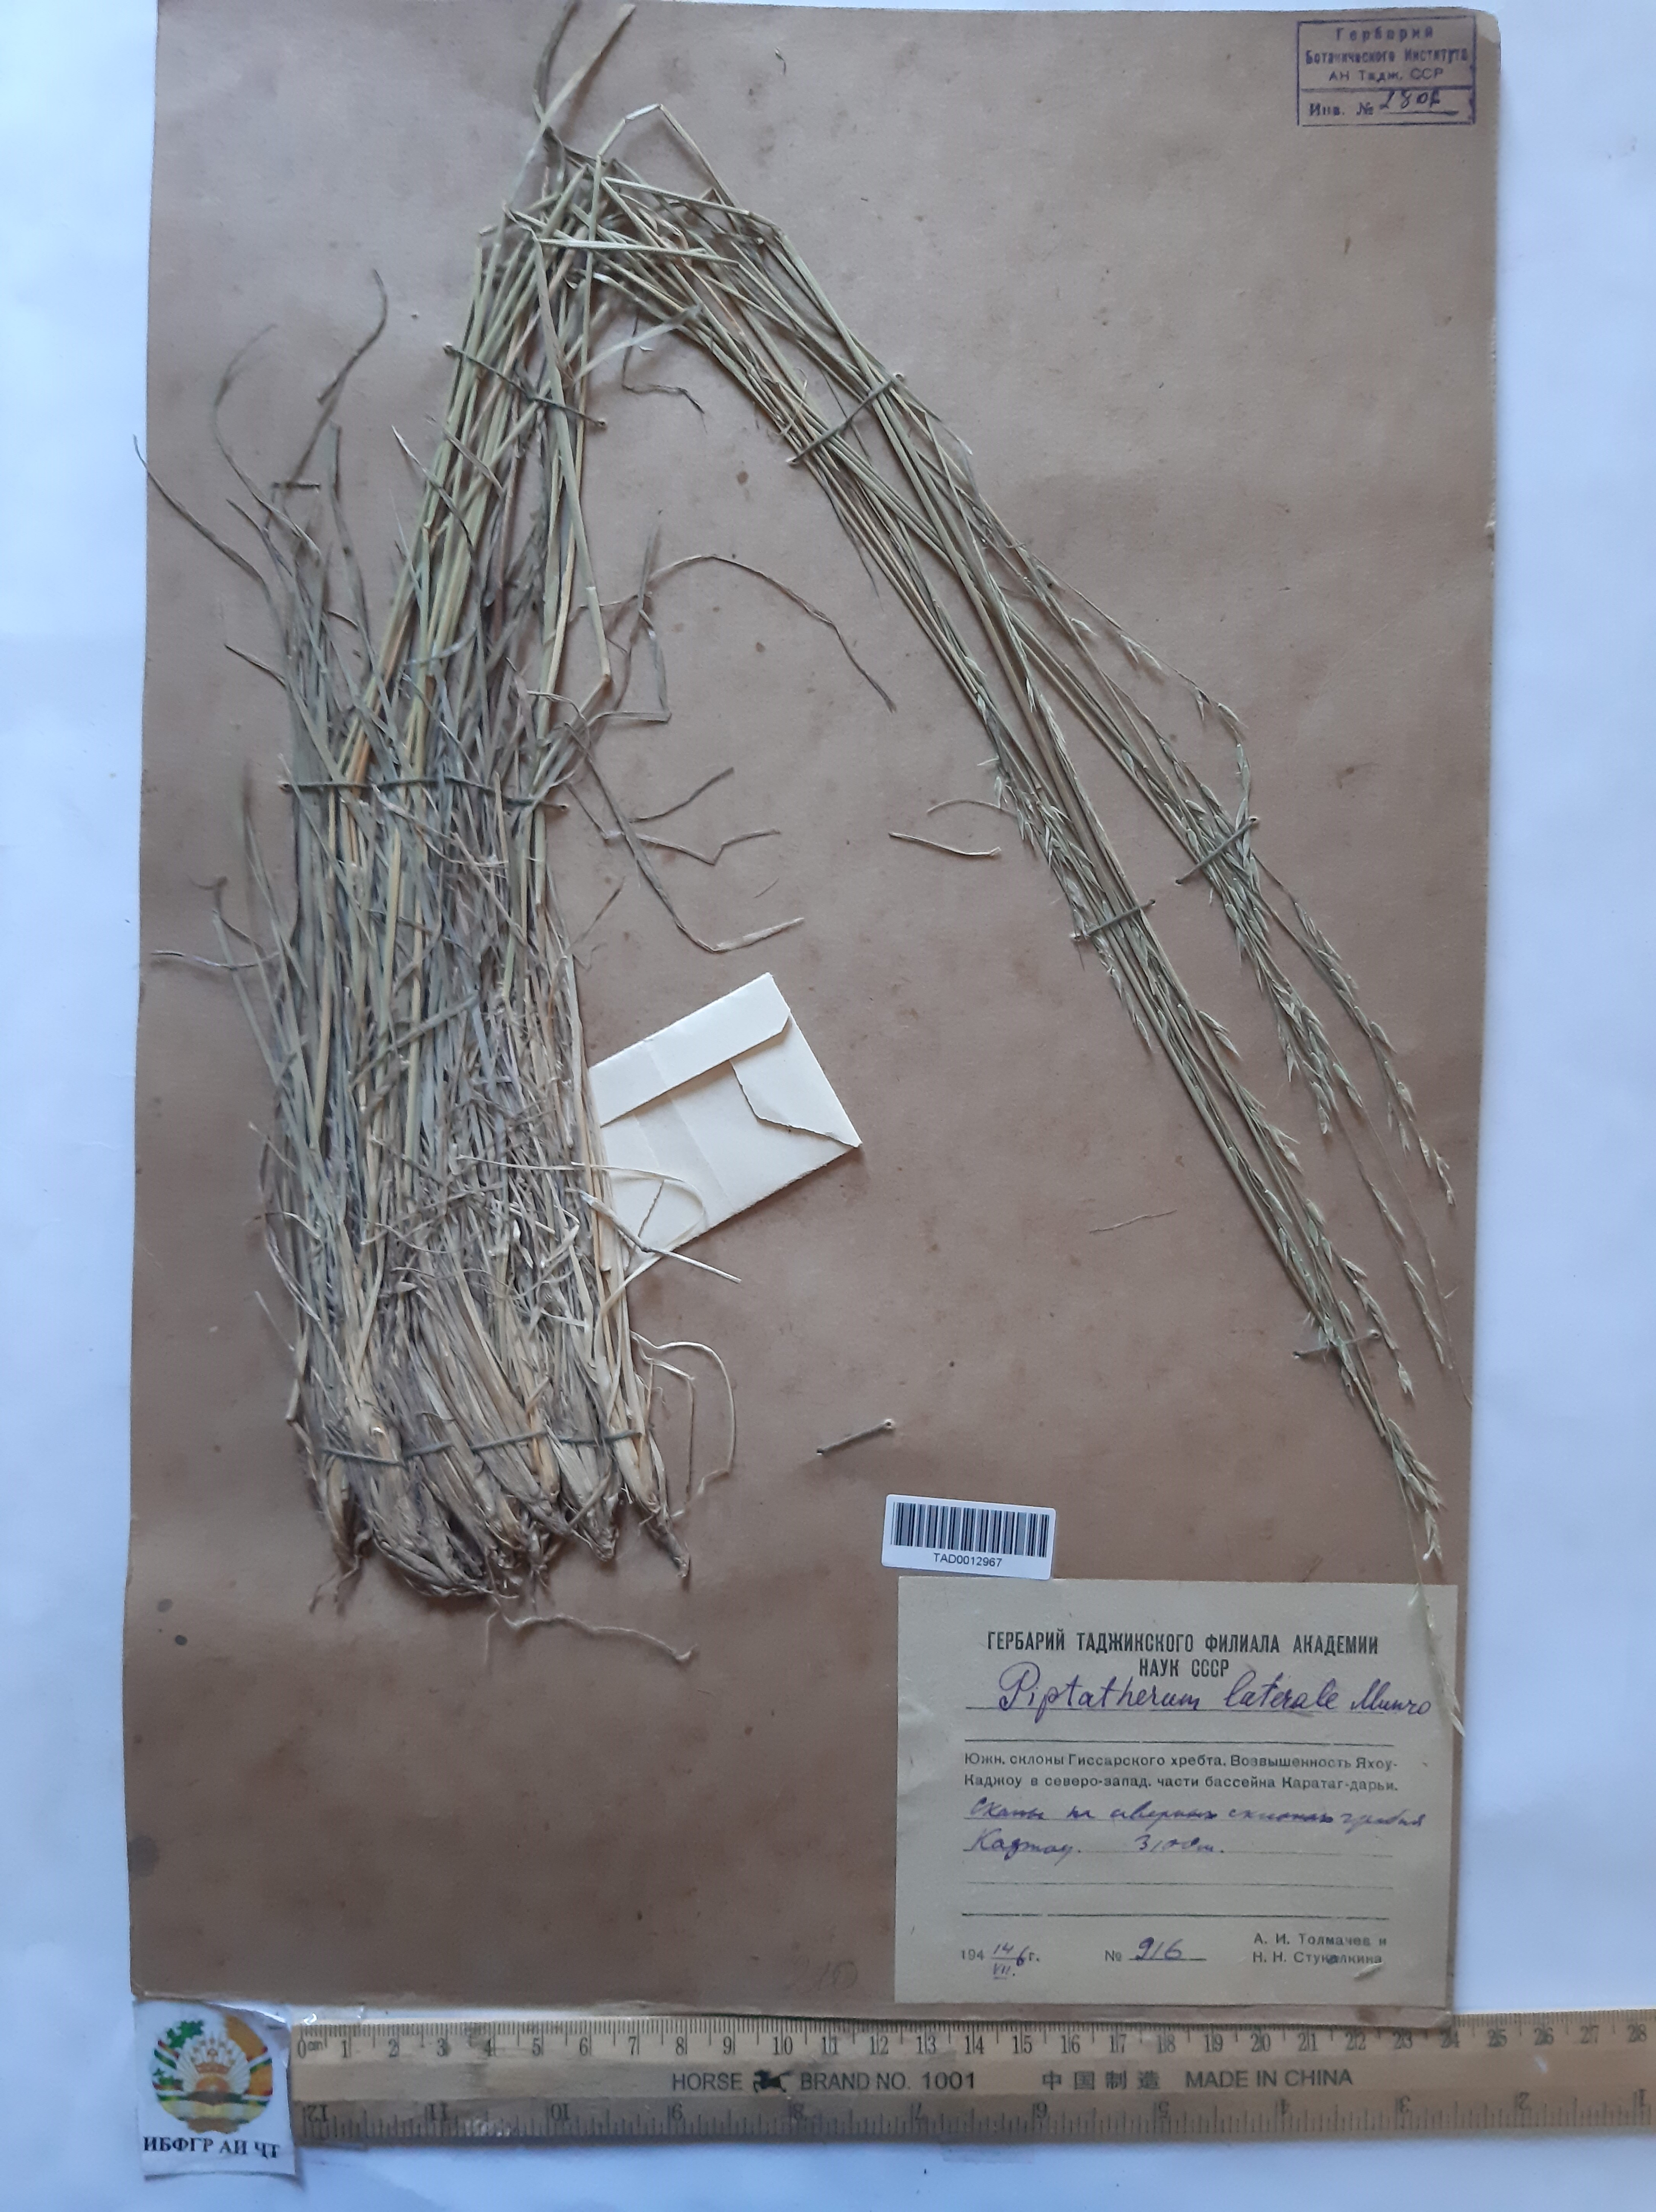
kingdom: Plantae
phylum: Tracheophyta
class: Liliopsida
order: Poales
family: Poaceae
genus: Piptatherum
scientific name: Piptatherum laterale
